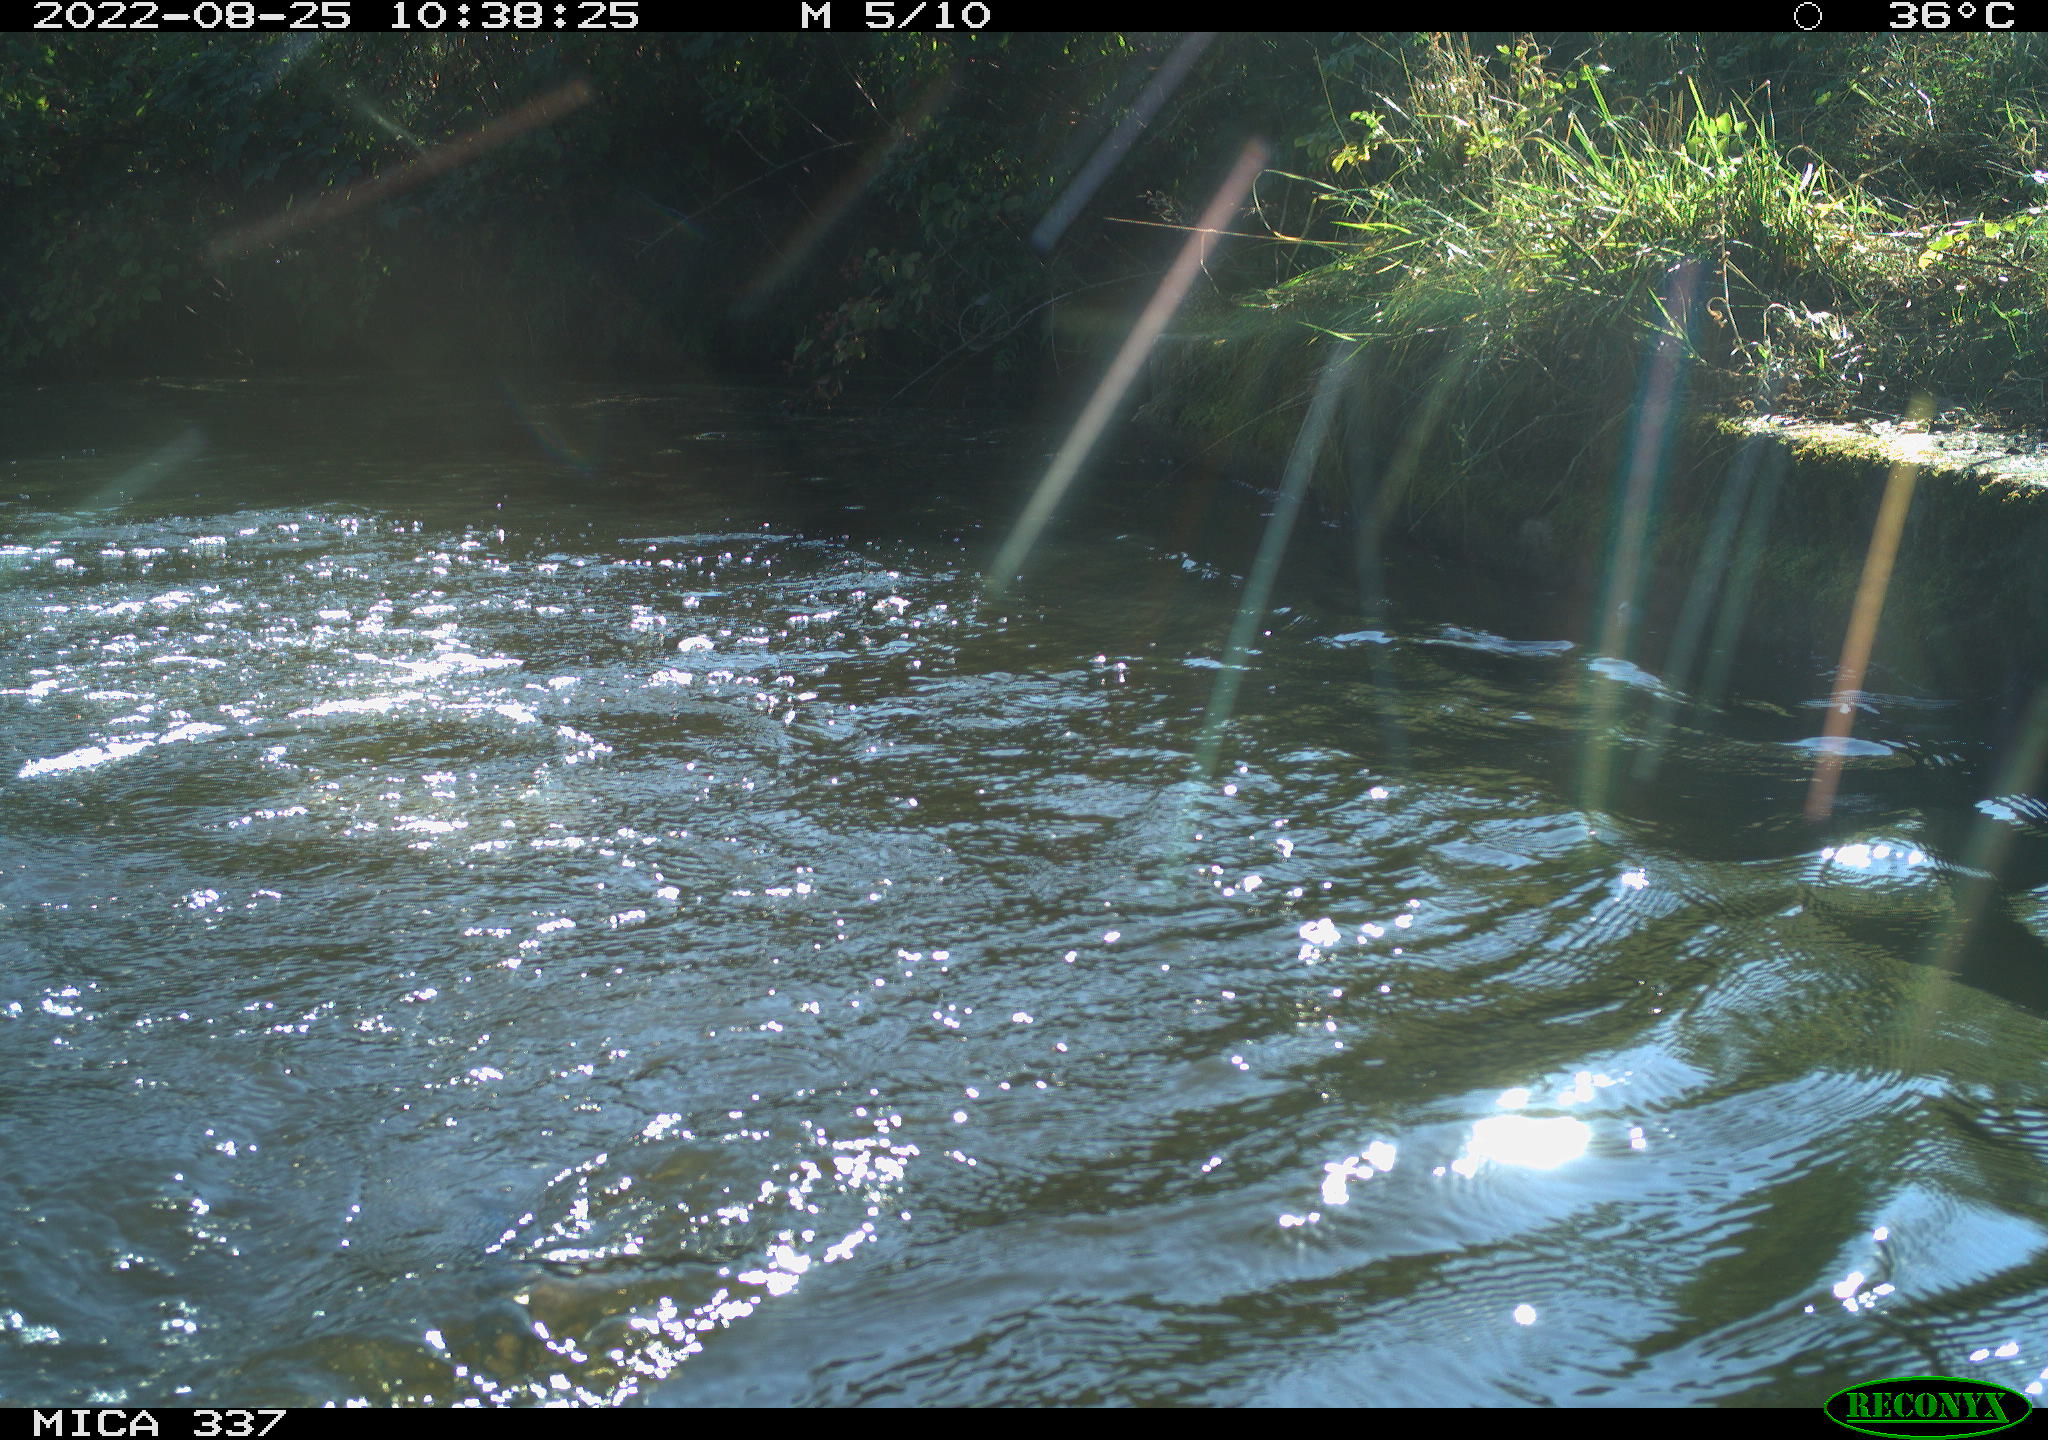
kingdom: Animalia
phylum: Chordata
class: Mammalia
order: Carnivora
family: Canidae
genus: Canis
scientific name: Canis lupus
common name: Gray wolf
